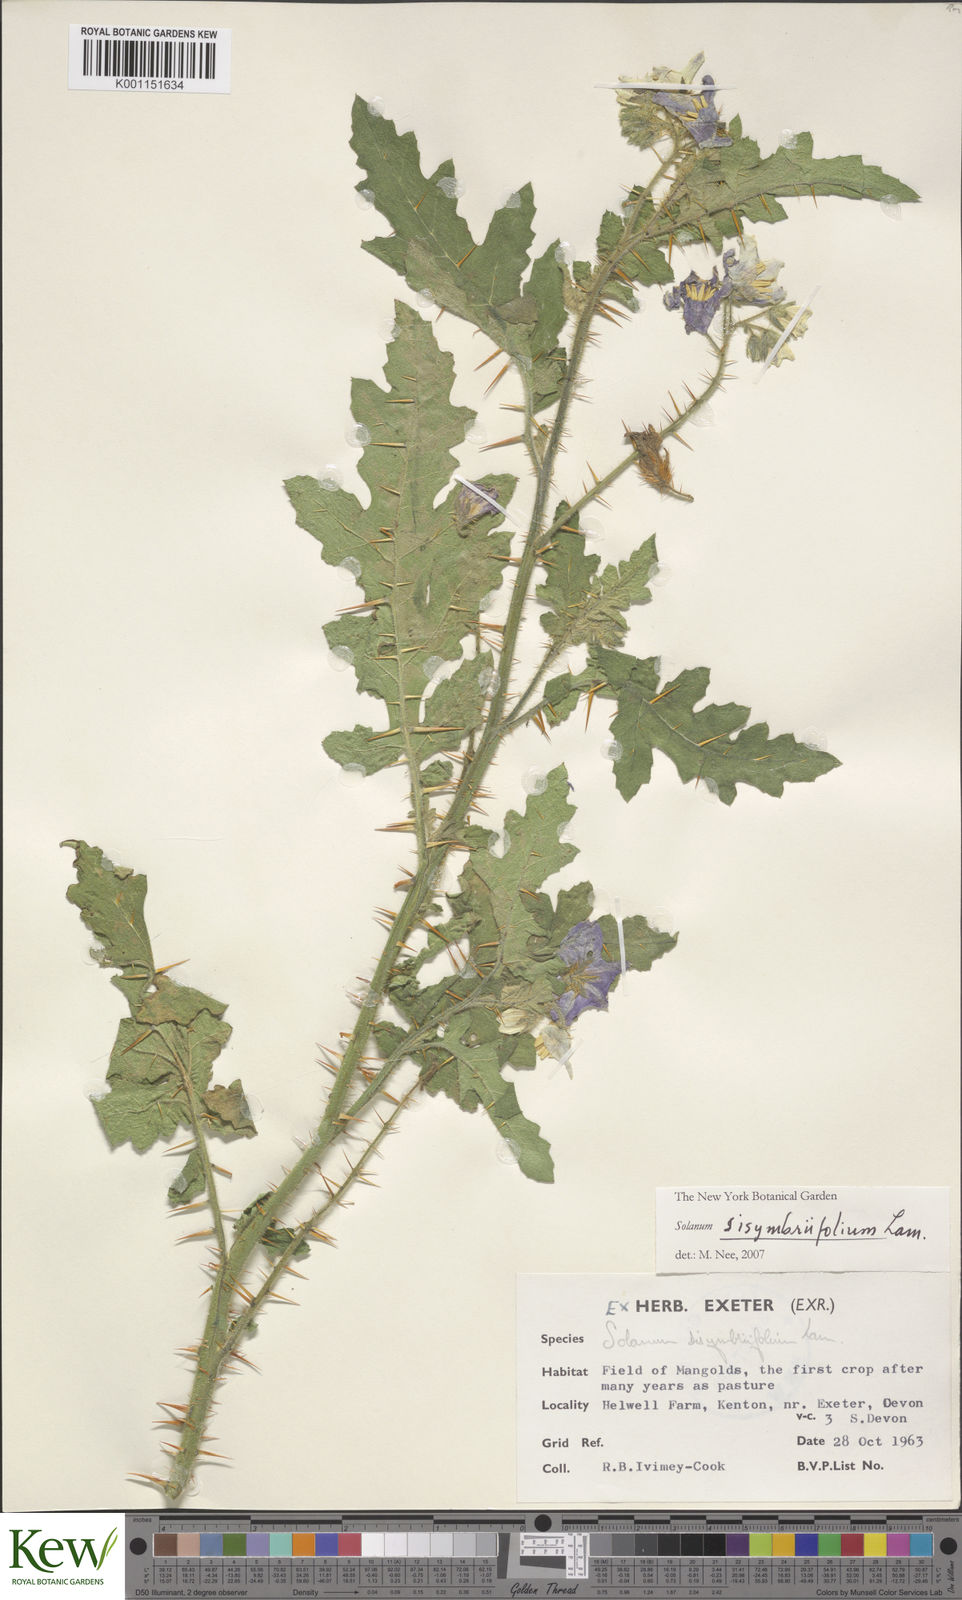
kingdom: Plantae
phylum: Tracheophyta
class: Magnoliopsida
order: Solanales
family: Solanaceae
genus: Solanum
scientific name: Solanum sisymbriifolium
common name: Red buffalo-bur
